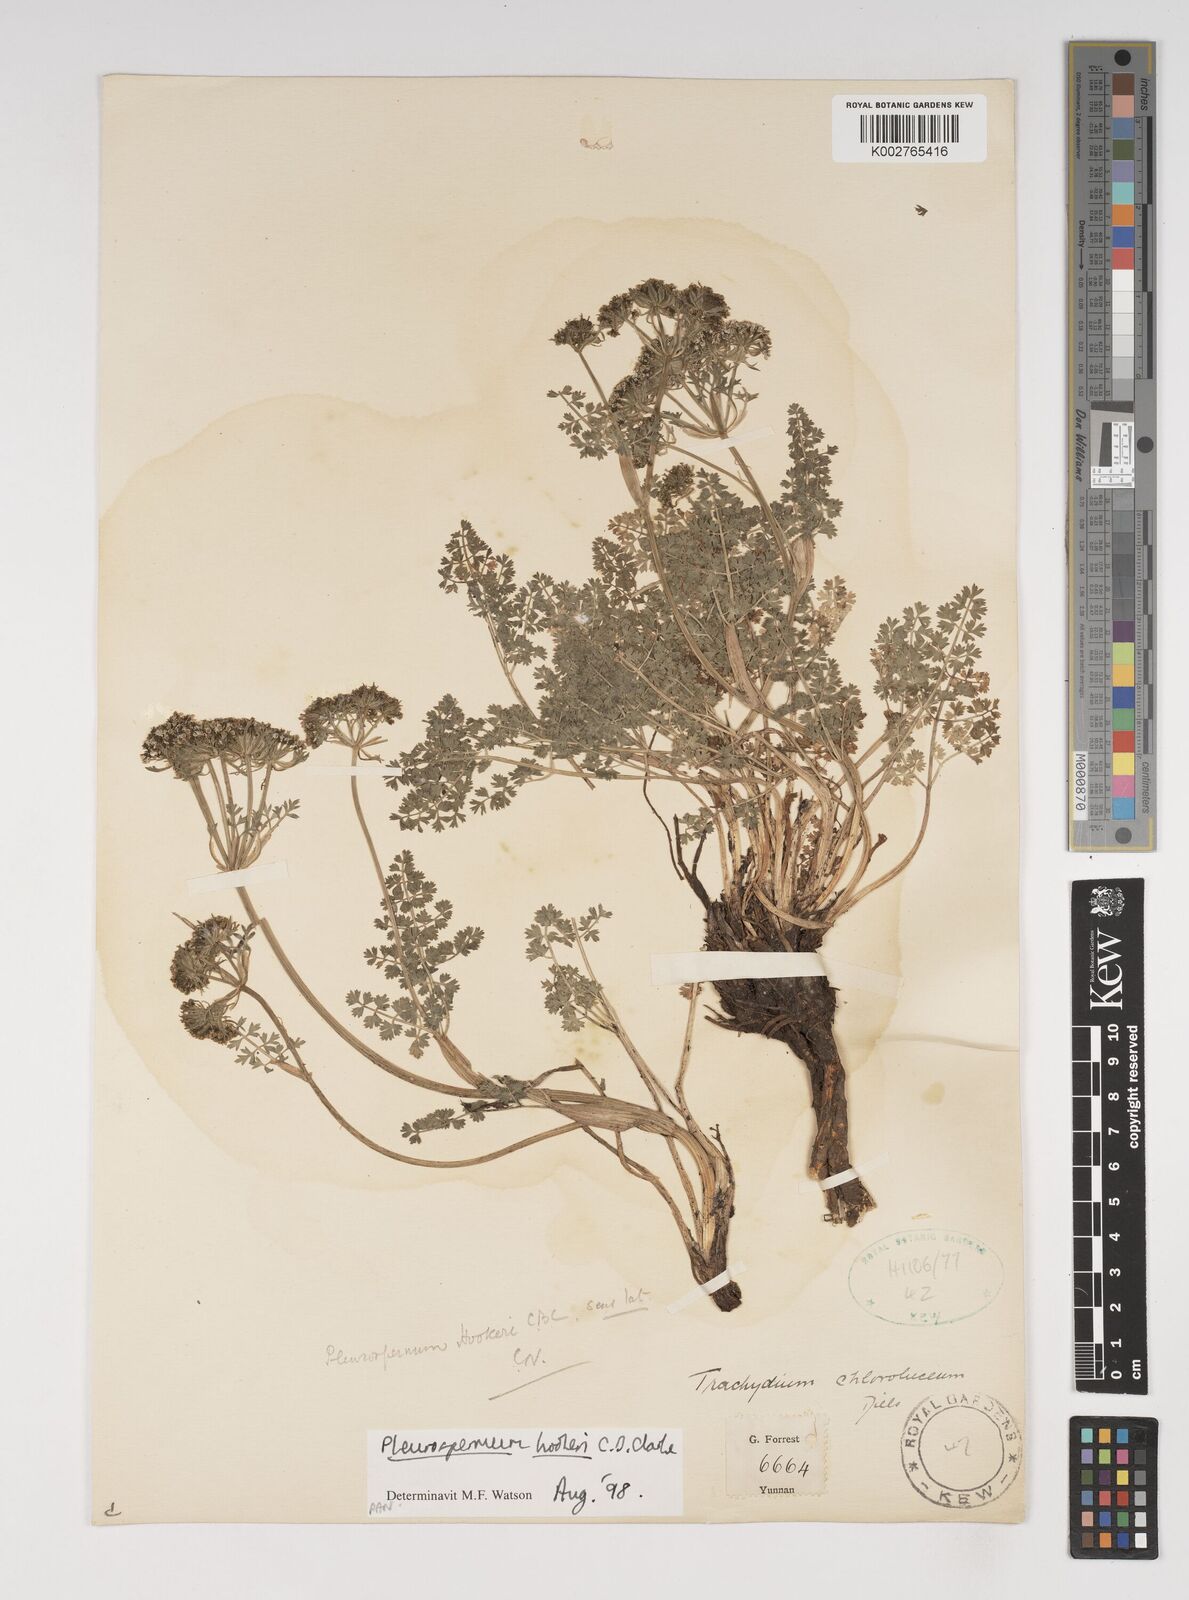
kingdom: Plantae
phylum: Tracheophyta
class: Magnoliopsida
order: Apiales
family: Apiaceae
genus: Pleurospermum
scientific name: Pleurospermum hookeri
